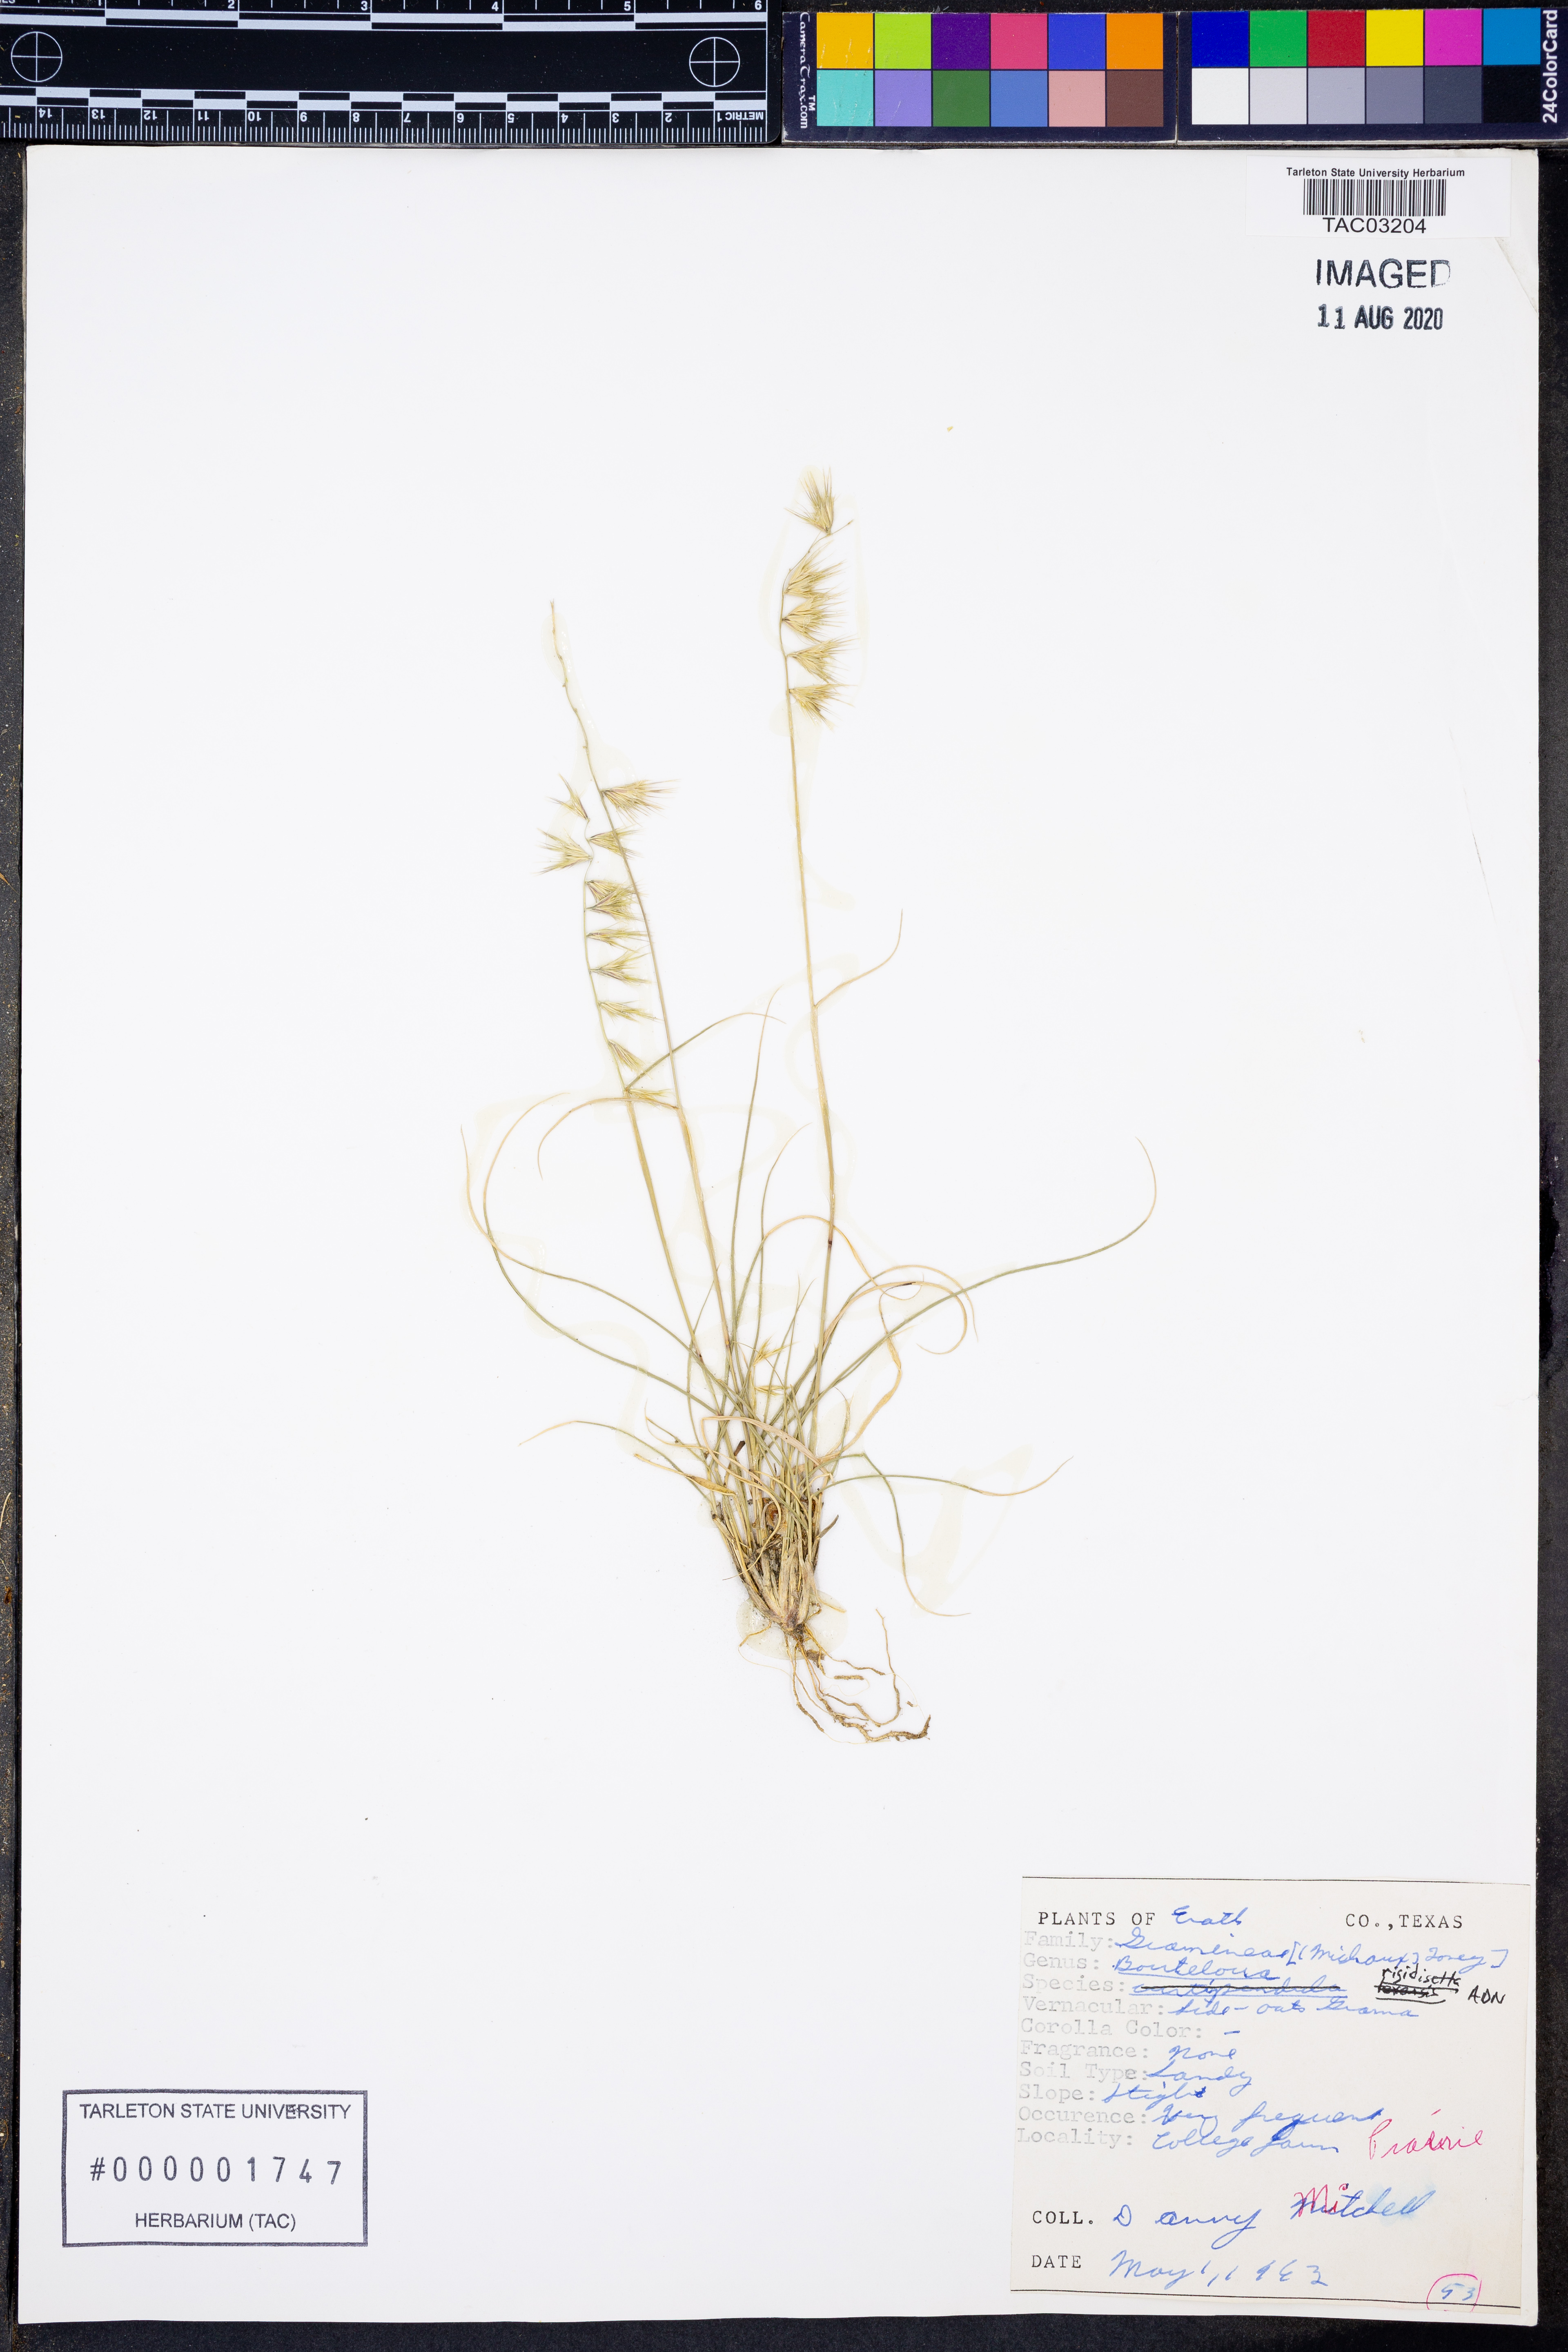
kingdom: Plantae
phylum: Tracheophyta
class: Liliopsida
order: Poales
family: Poaceae
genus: Bouteloua
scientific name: Bouteloua rigidiseta
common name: Texas grama
